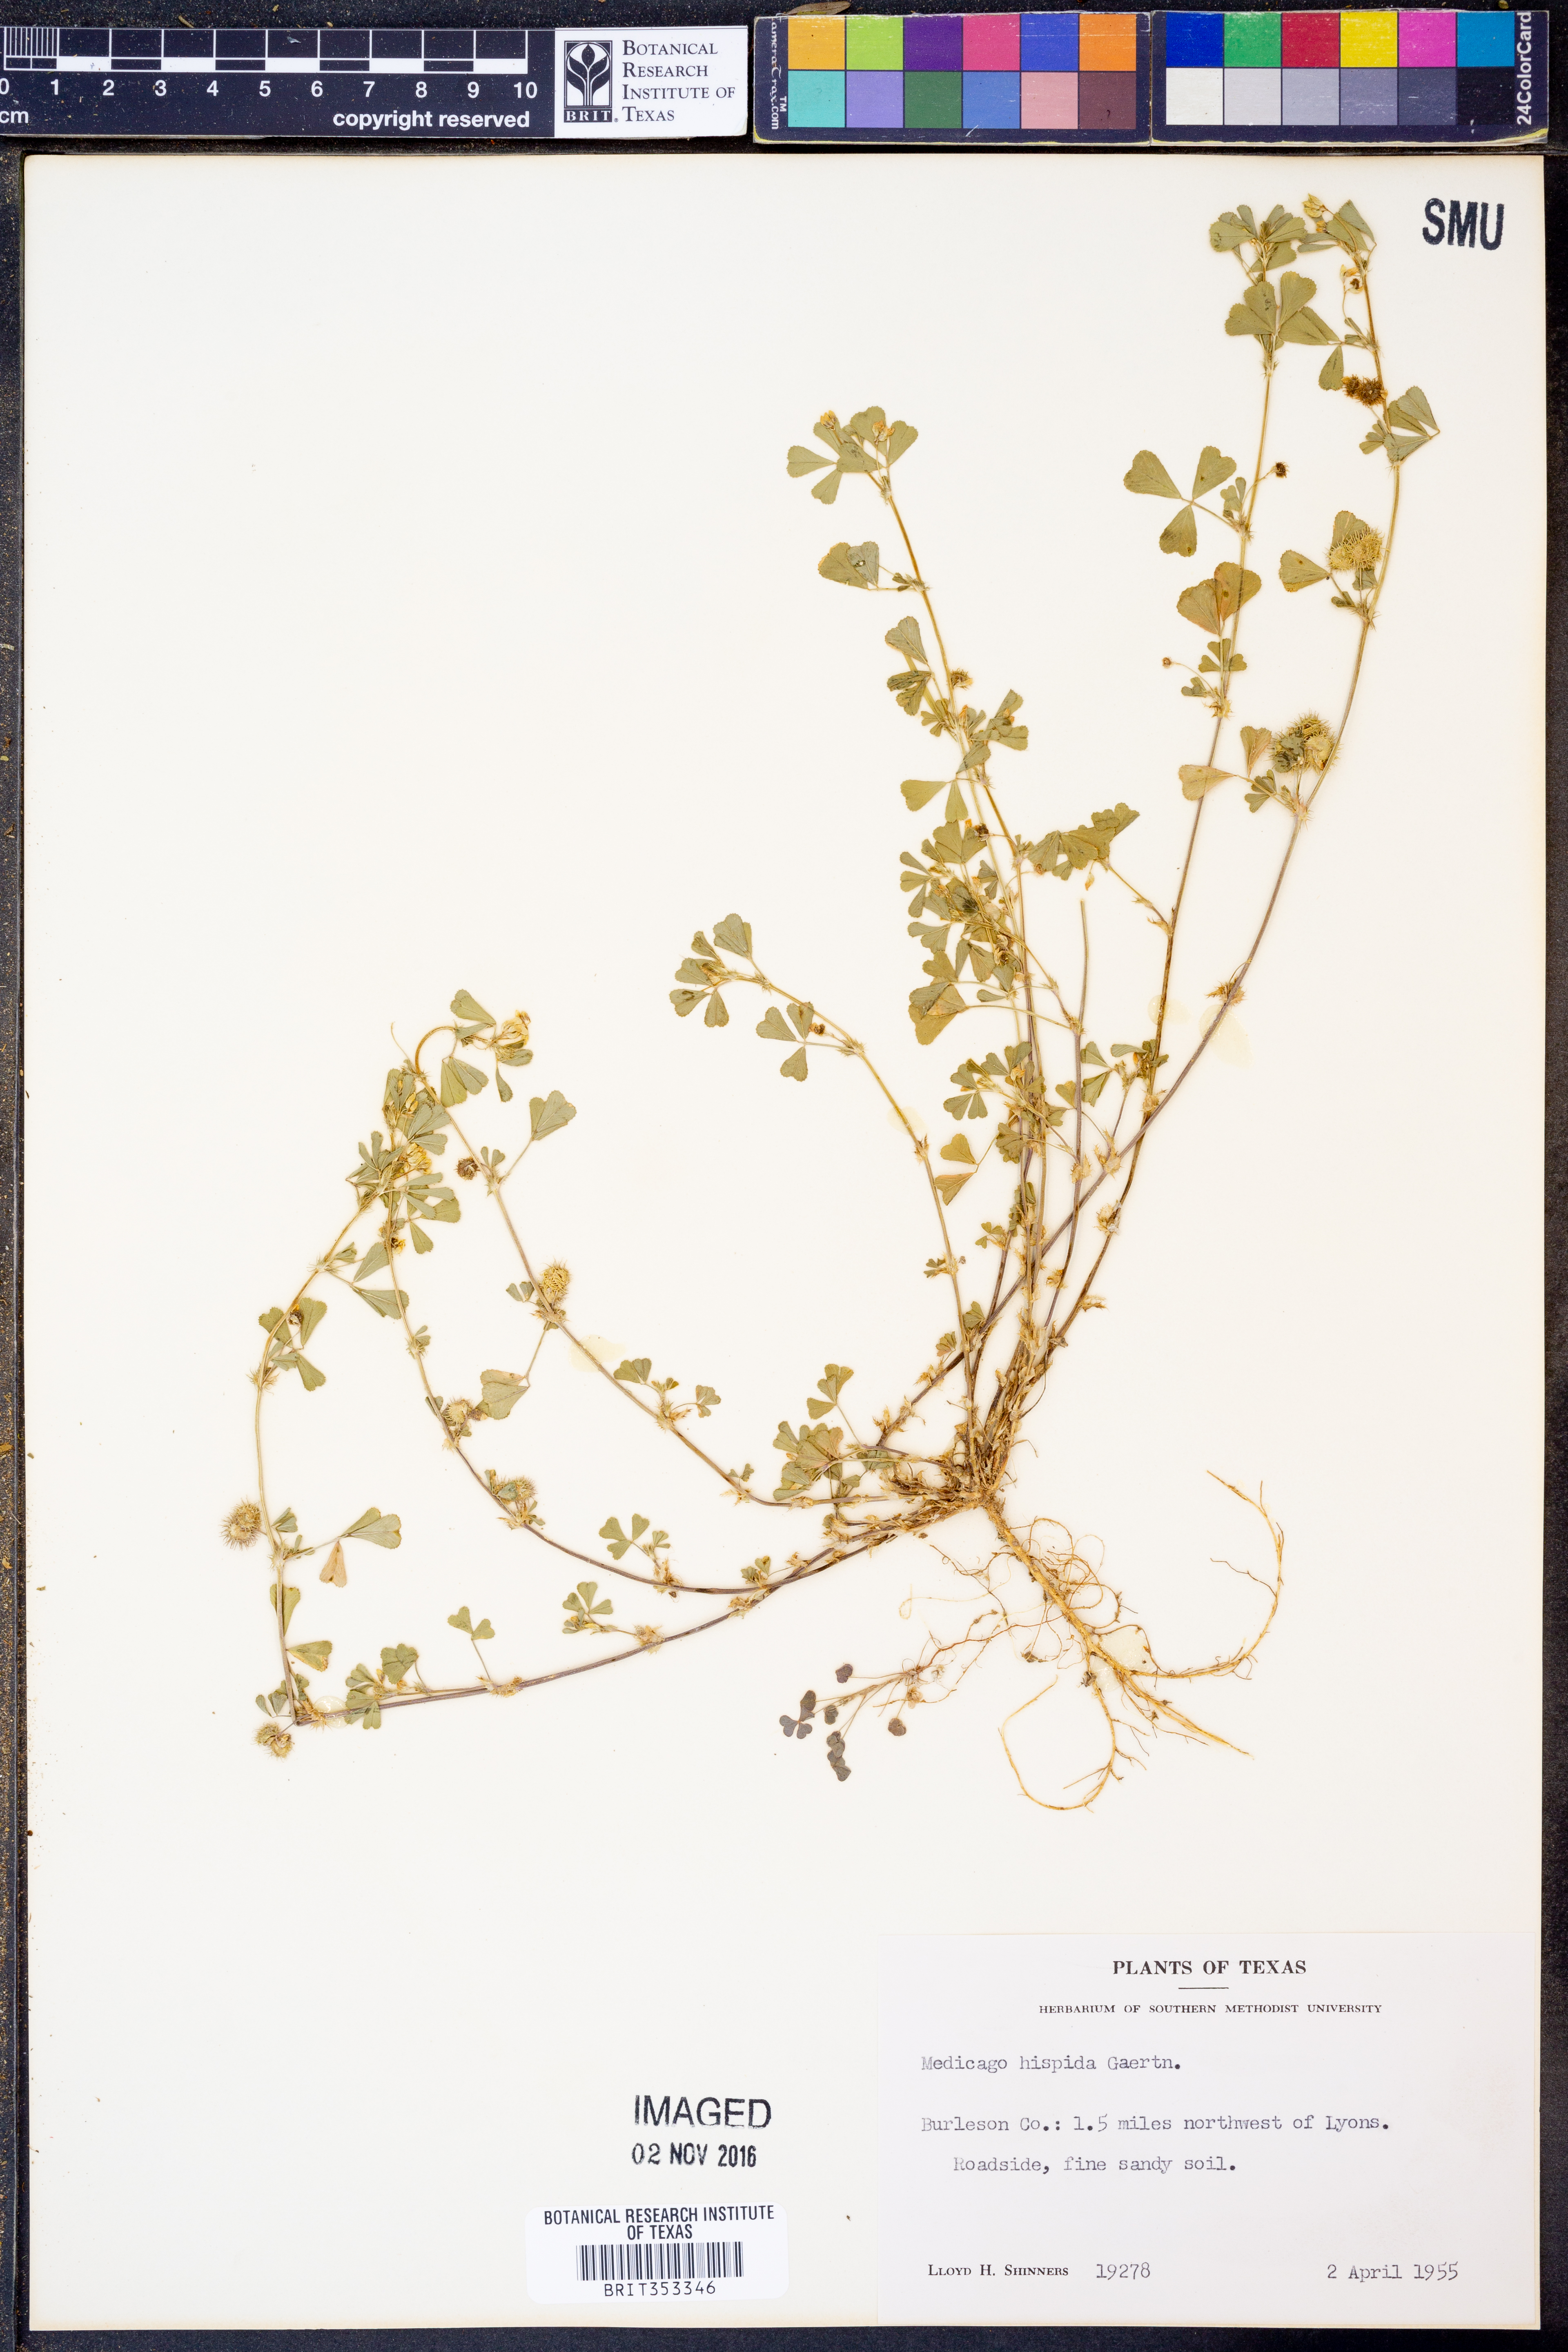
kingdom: Plantae
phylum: Tracheophyta
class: Magnoliopsida
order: Fabales
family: Fabaceae
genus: Medicago
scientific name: Medicago polymorpha
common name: Burclover
